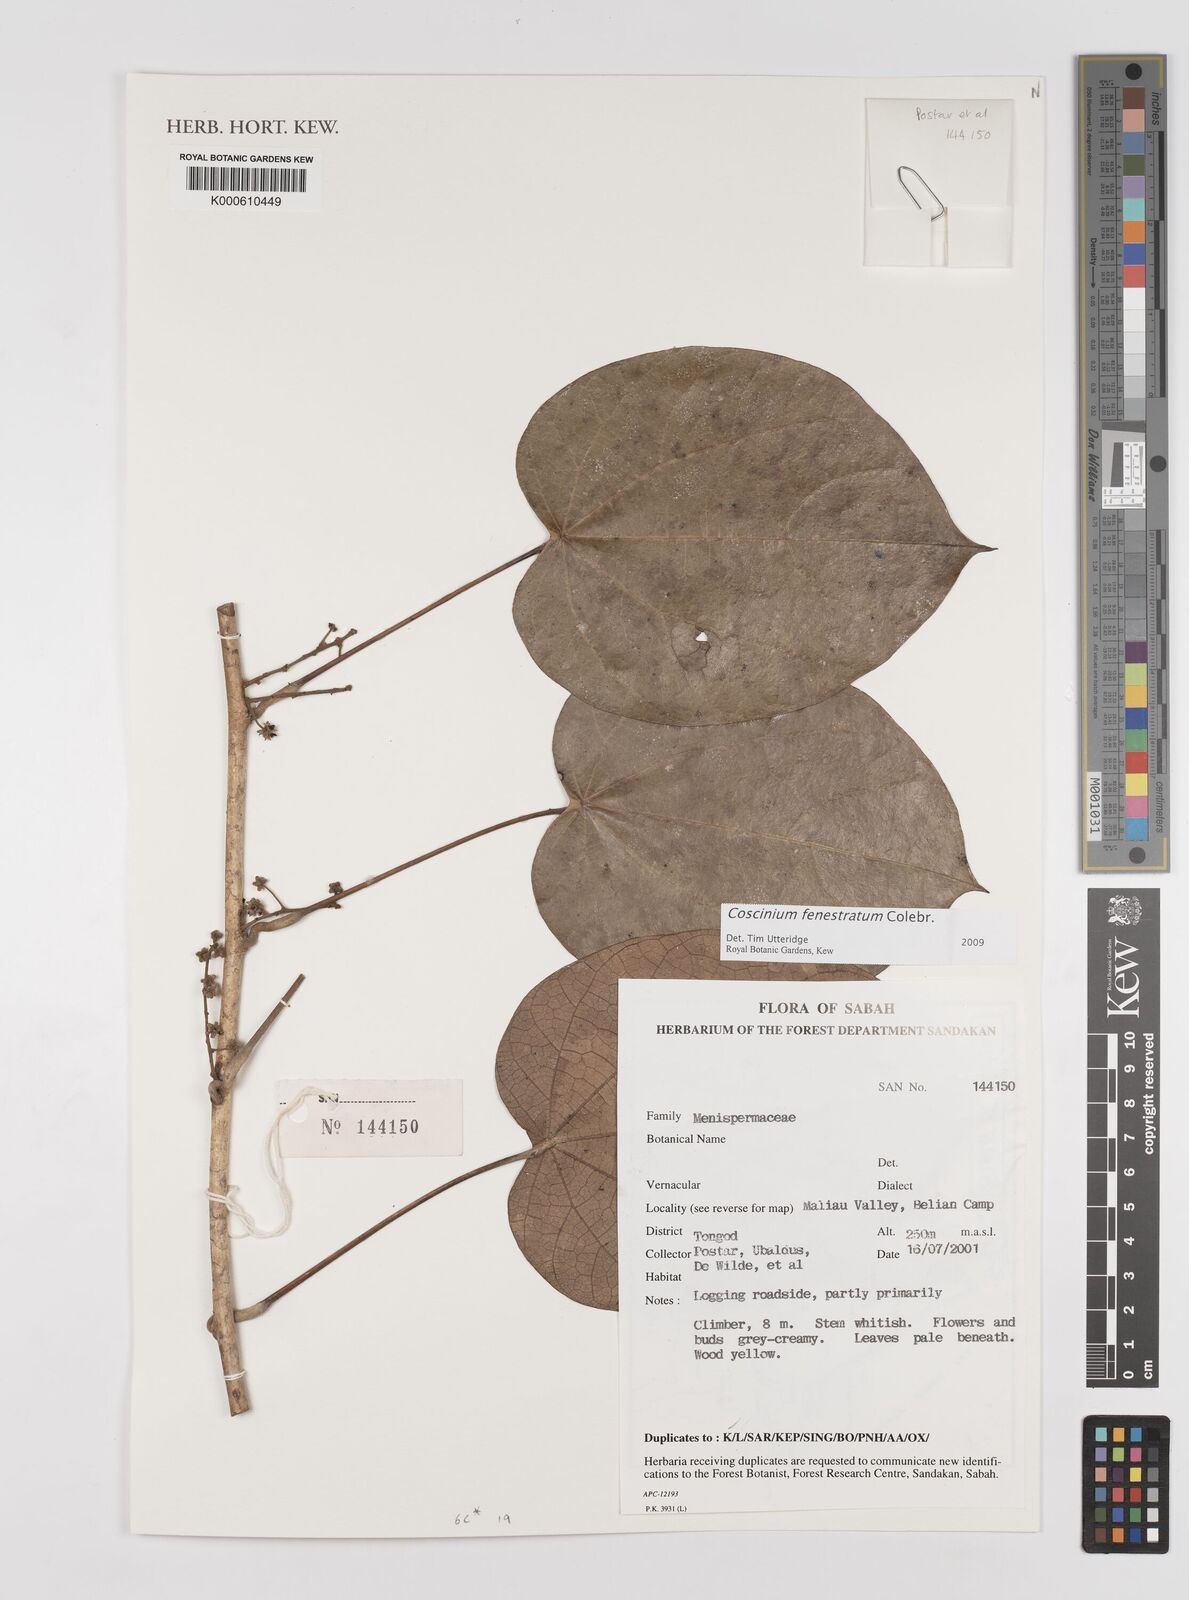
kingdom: Plantae
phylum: Tracheophyta
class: Magnoliopsida
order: Ranunculales
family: Menispermaceae
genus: Coscinium
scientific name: Coscinium fenestratum
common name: False calumba
